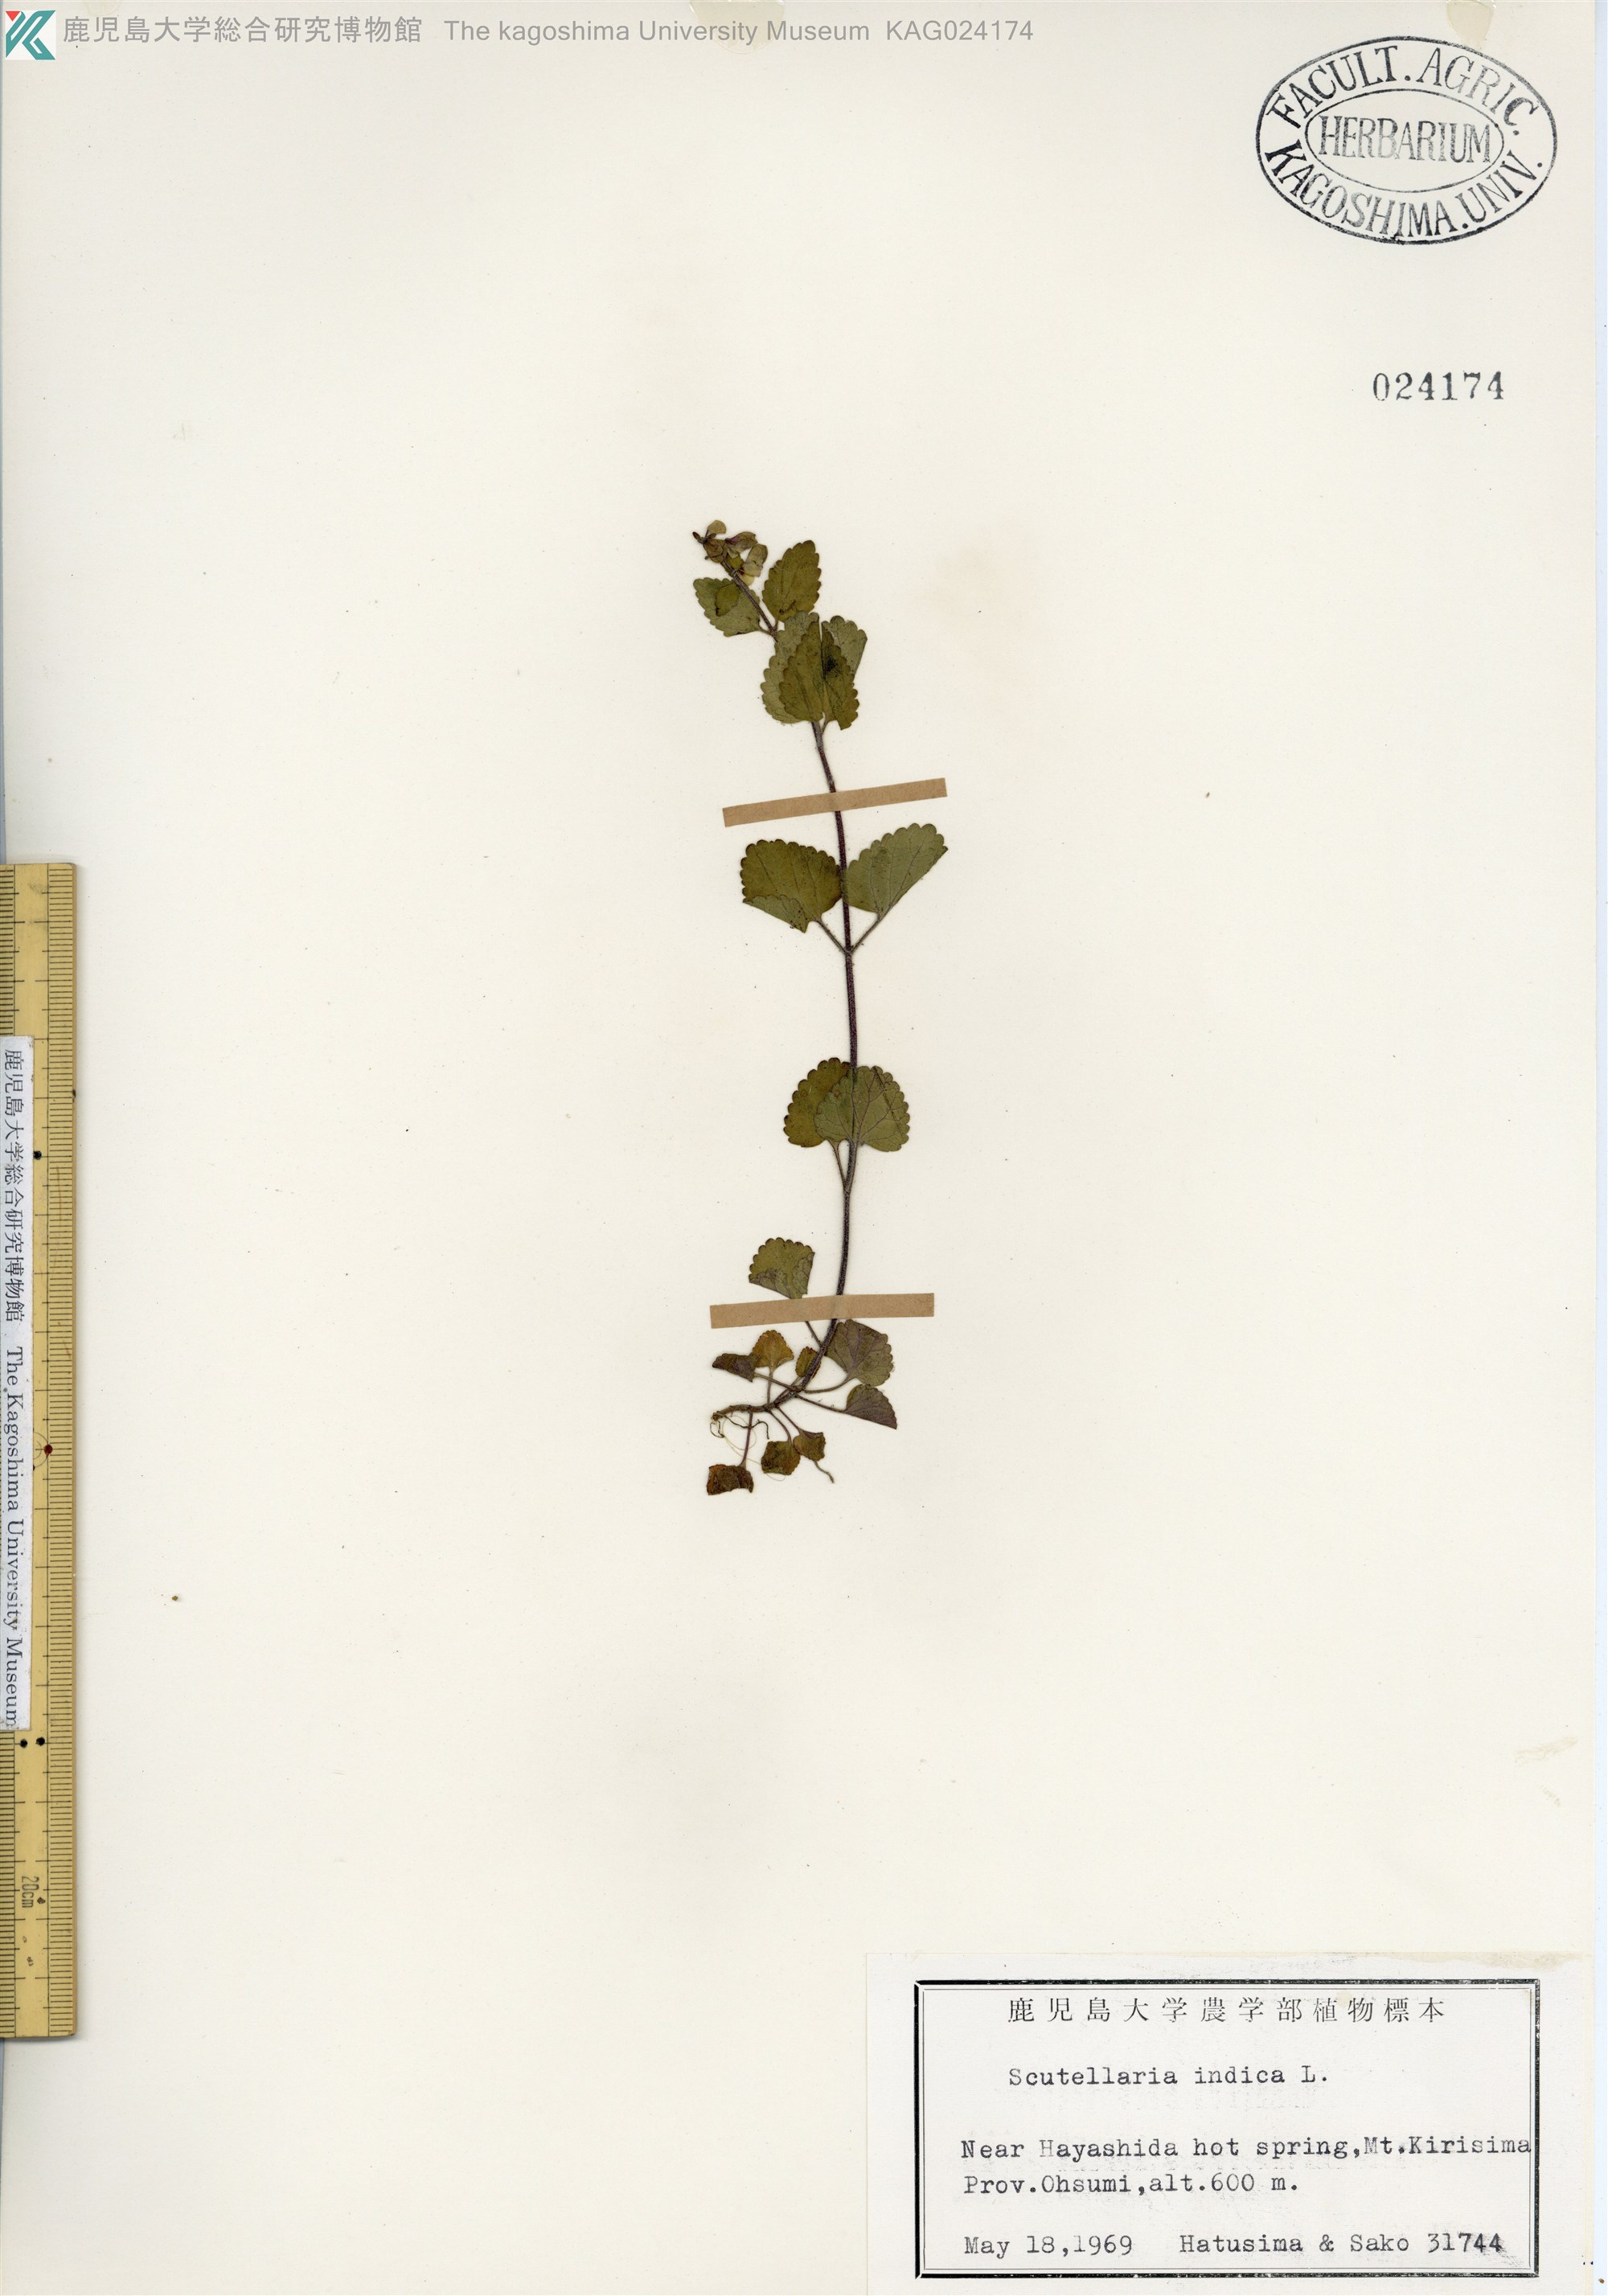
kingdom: Plantae
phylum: Tracheophyta
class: Magnoliopsida
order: Lamiales
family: Lamiaceae
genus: Scutellaria
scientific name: Scutellaria indica
